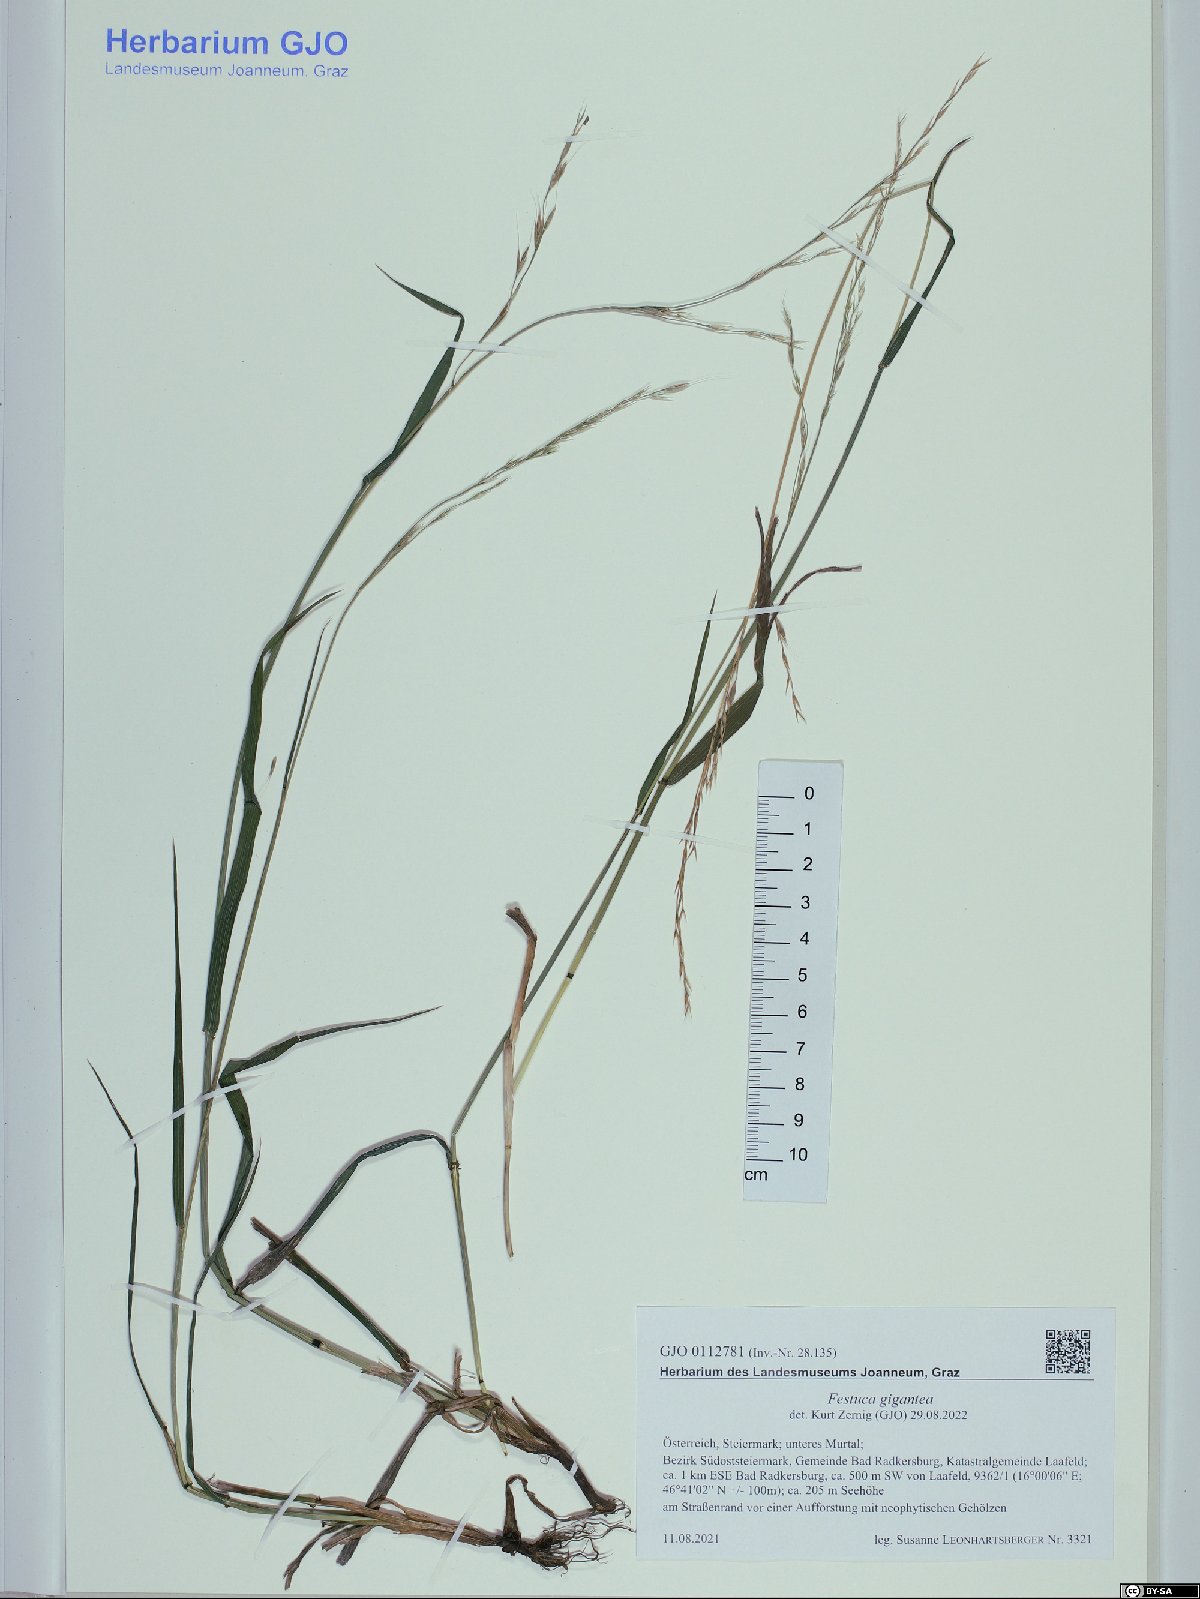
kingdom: Plantae
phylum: Tracheophyta
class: Liliopsida
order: Poales
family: Poaceae
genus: Lolium
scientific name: Lolium giganteum
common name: Giant fescue
